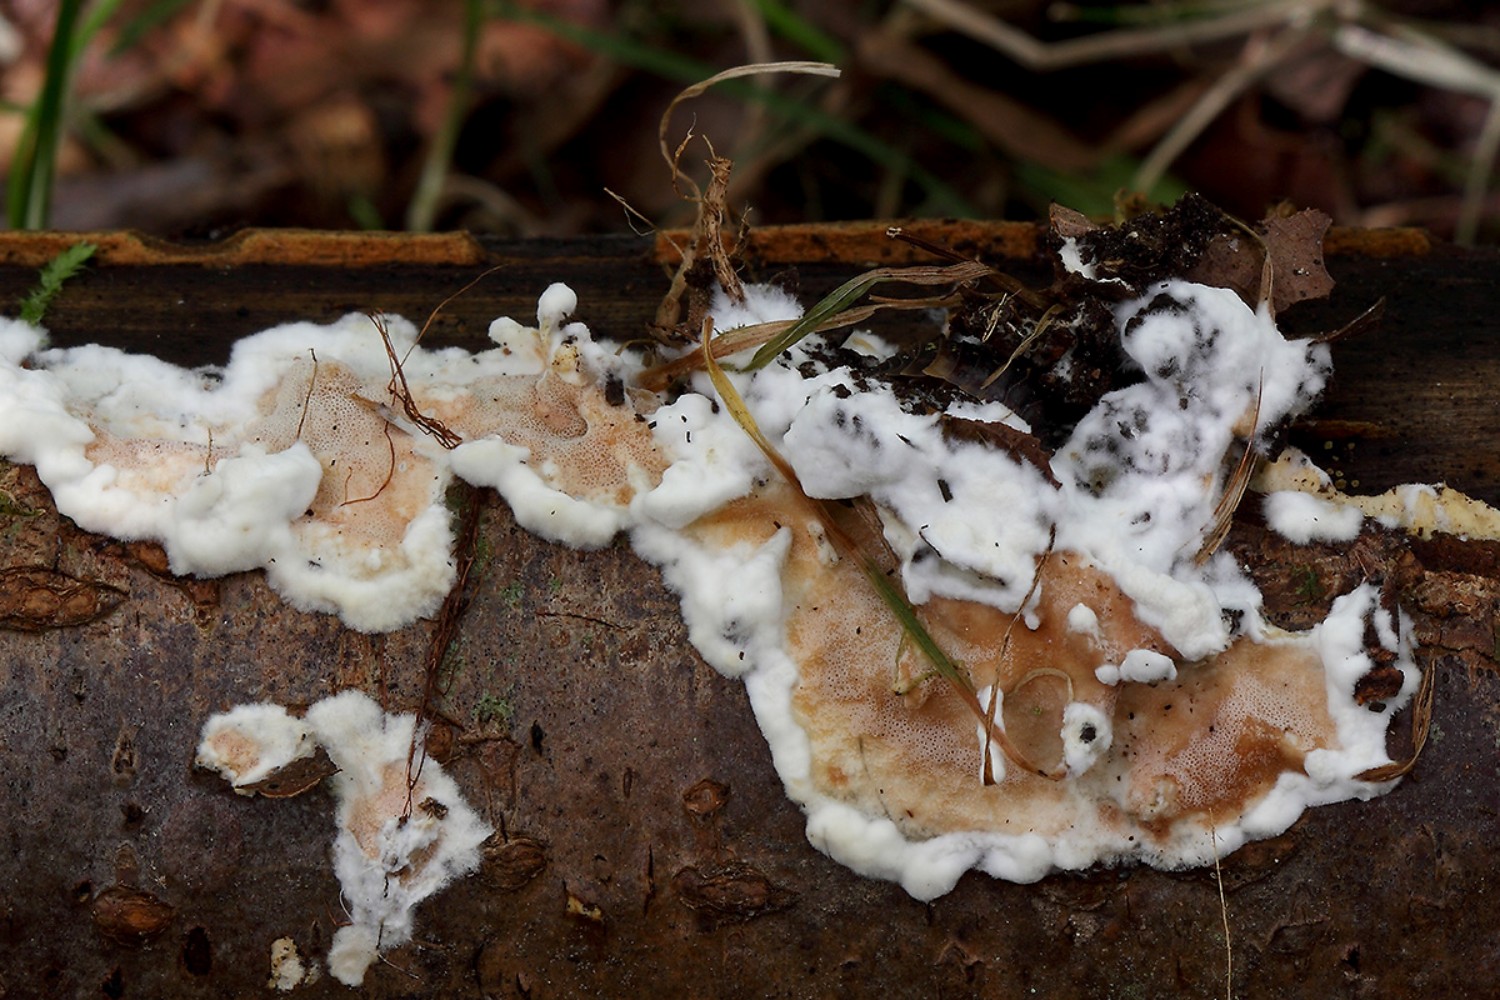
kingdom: Fungi
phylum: Basidiomycota
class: Agaricomycetes
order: Polyporales
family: Irpicaceae
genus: Vitreoporus
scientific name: Vitreoporus dichrous
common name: tofarvet foldporesvamp
